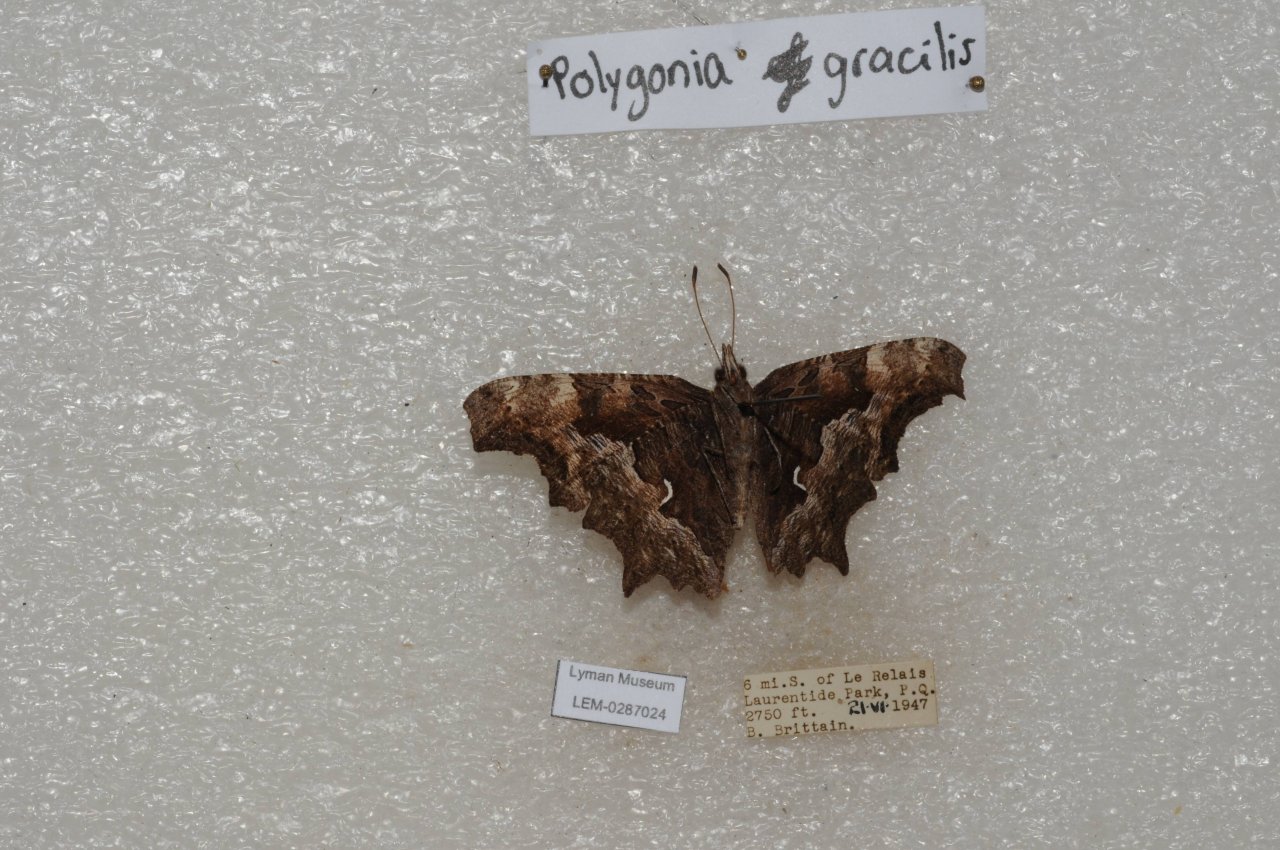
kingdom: Animalia
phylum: Arthropoda
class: Insecta
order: Lepidoptera
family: Nymphalidae
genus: Polygonia
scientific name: Polygonia gracilis
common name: Hoary Comma
